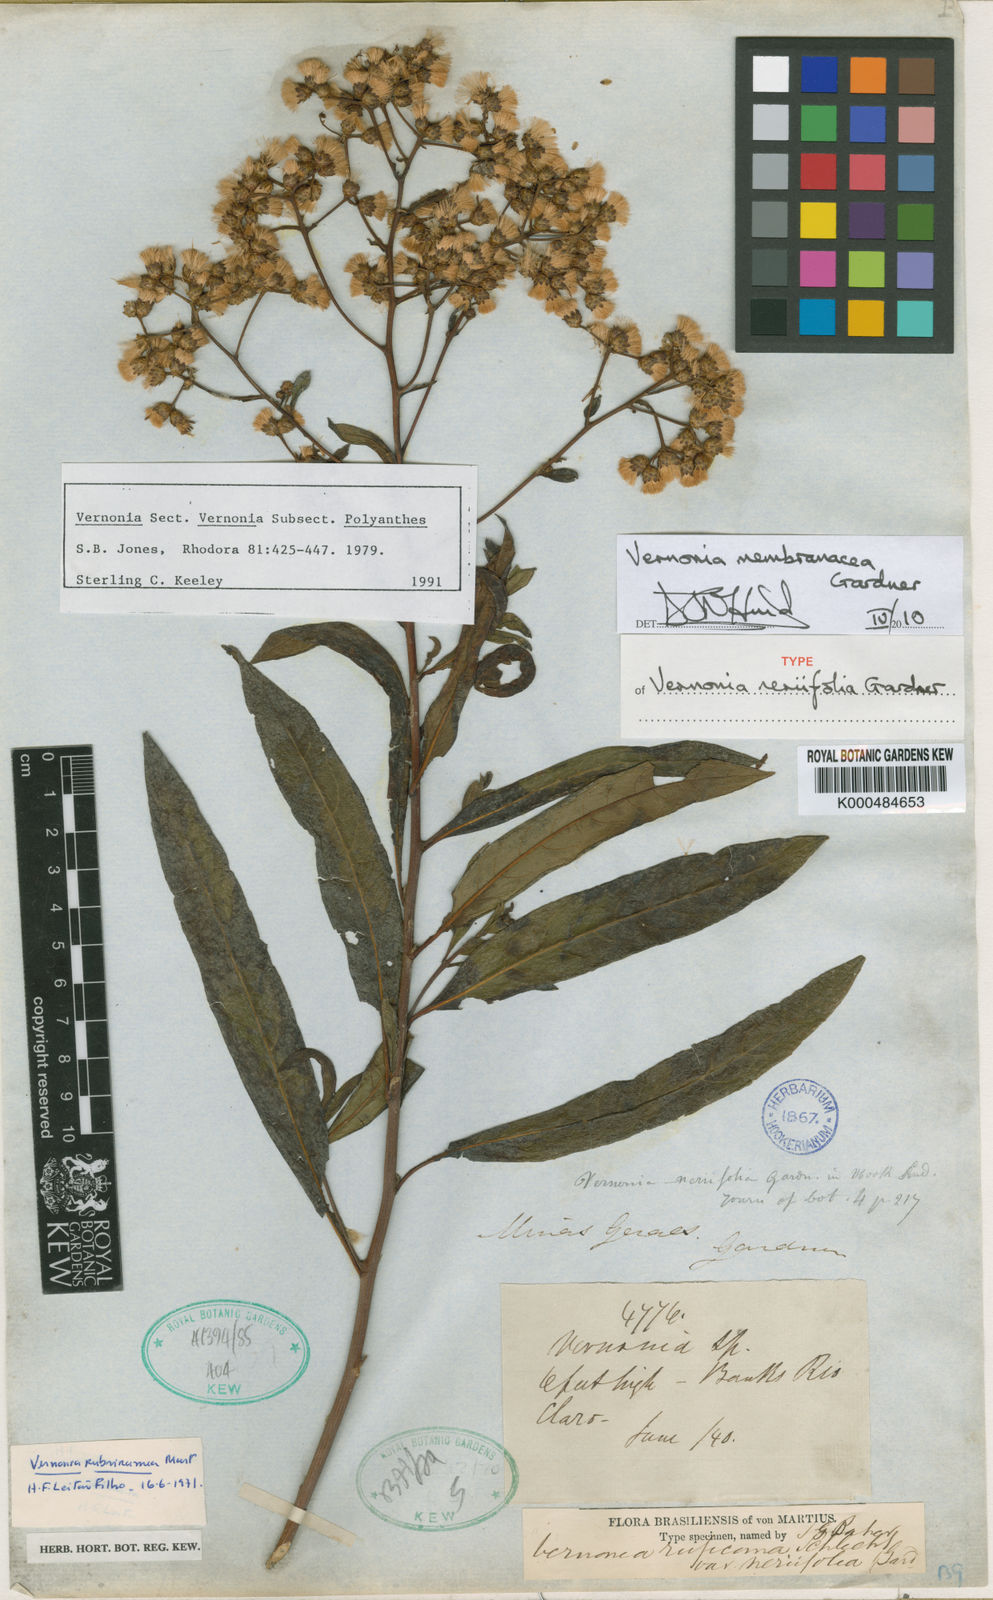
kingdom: Plantae
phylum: Tracheophyta
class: Magnoliopsida
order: Asterales
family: Asteraceae
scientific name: Asteraceae
